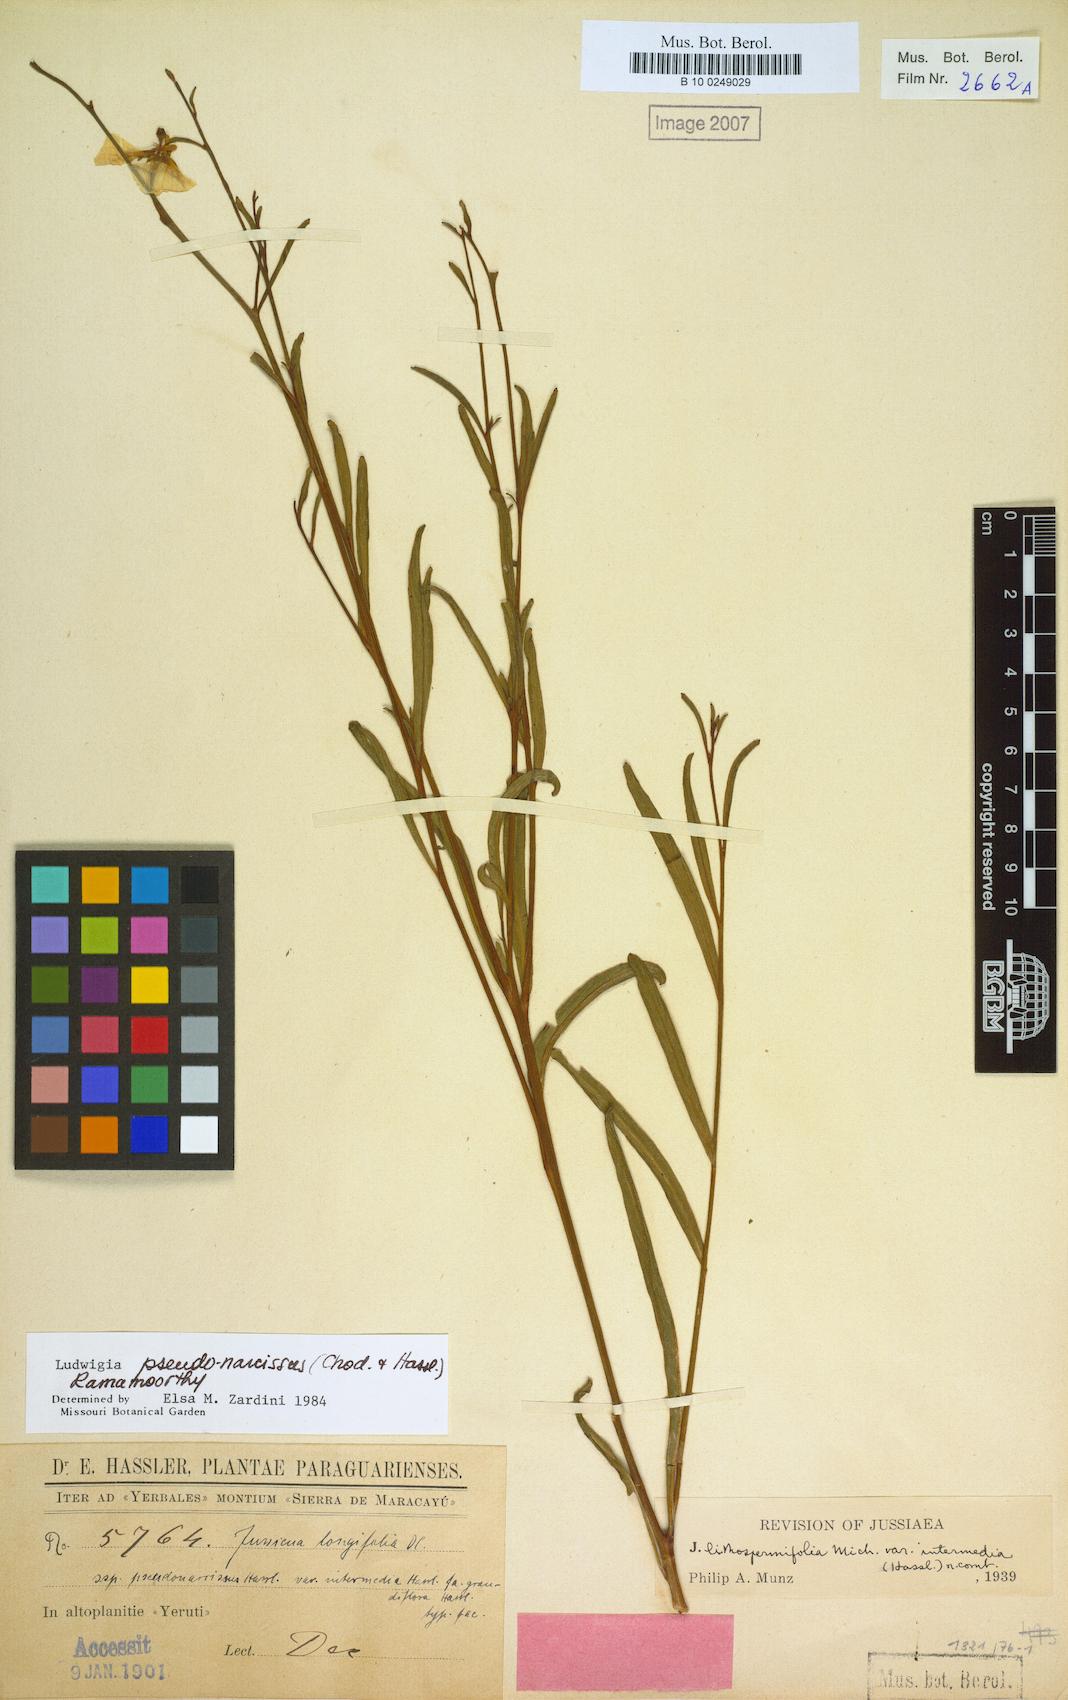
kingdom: Plantae
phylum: Tracheophyta
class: Magnoliopsida
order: Myrtales
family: Onagraceae
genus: Ludwigia
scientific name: Ludwigia pseudonarcissus
